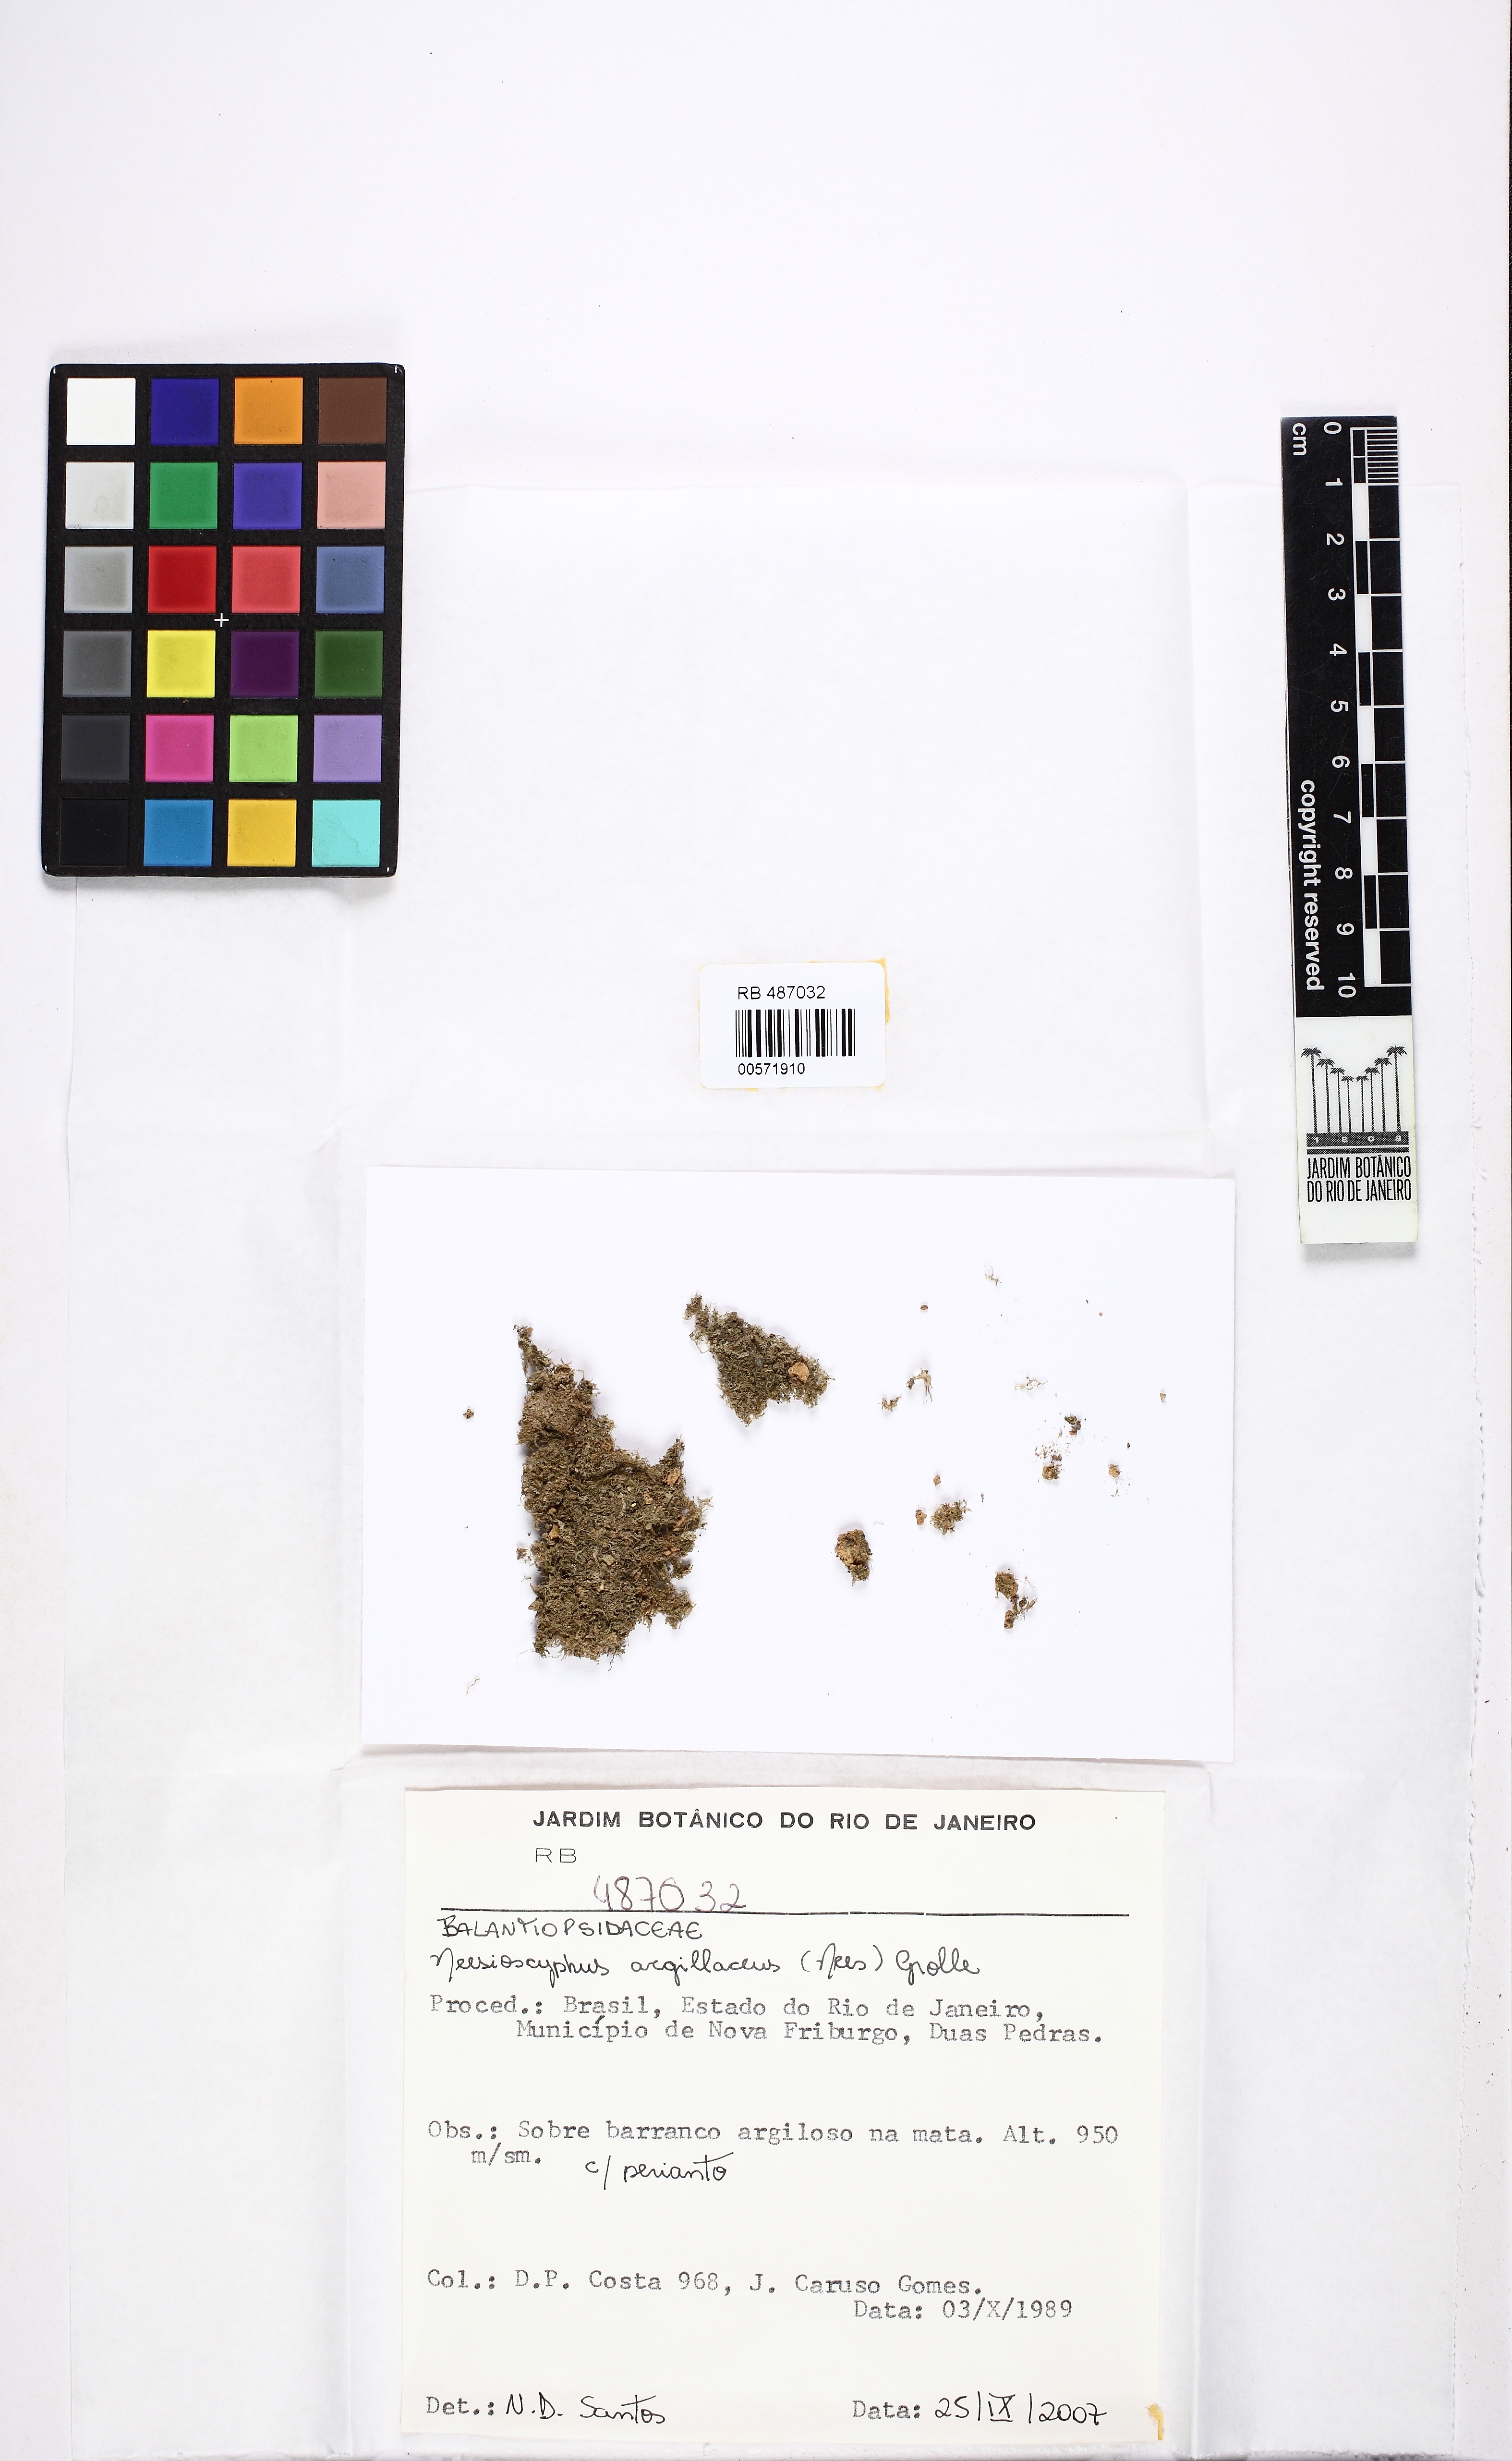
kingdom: Plantae
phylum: Marchantiophyta
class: Jungermanniopsida
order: Jungermanniales
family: Balantiopsidaceae
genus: Neesioscyphus
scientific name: Neesioscyphus argillaceus
